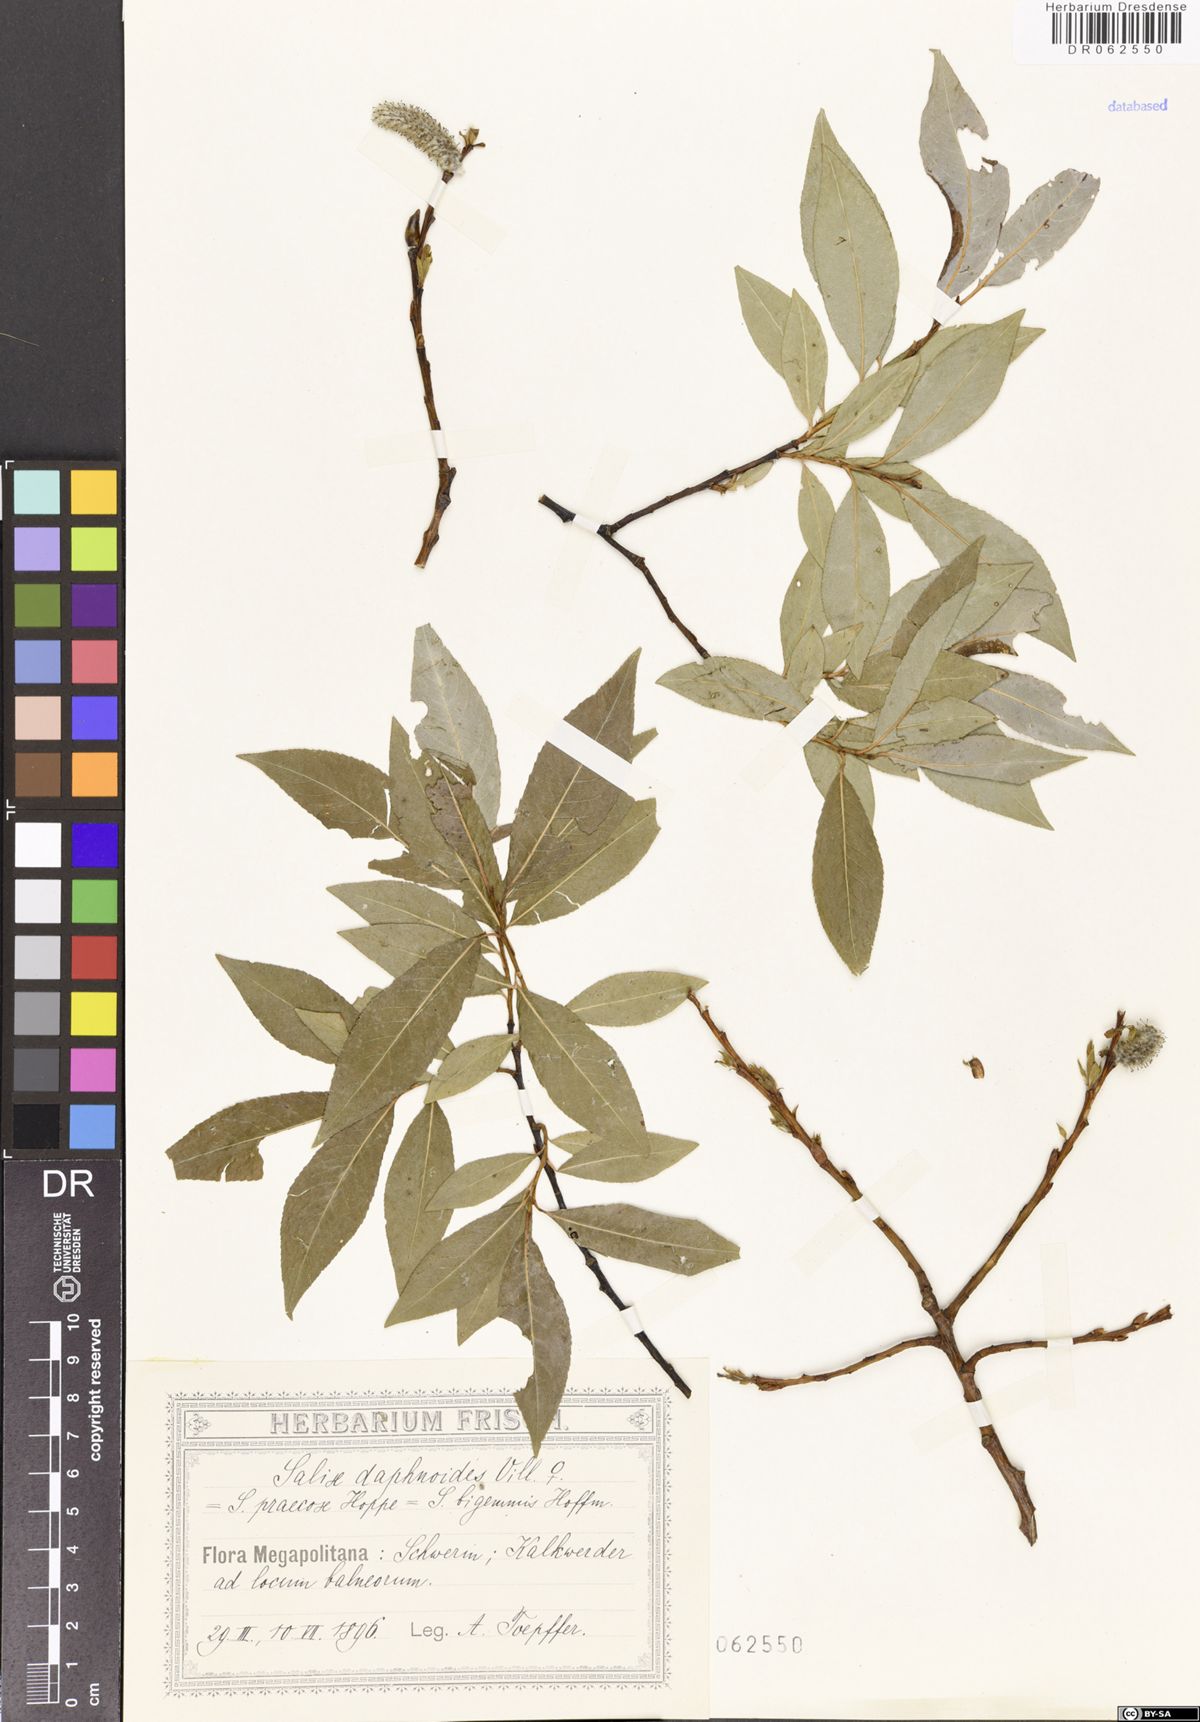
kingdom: Plantae
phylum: Tracheophyta
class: Magnoliopsida
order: Malpighiales
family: Salicaceae
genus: Salix
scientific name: Salix daphnoides
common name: European violet-willow
